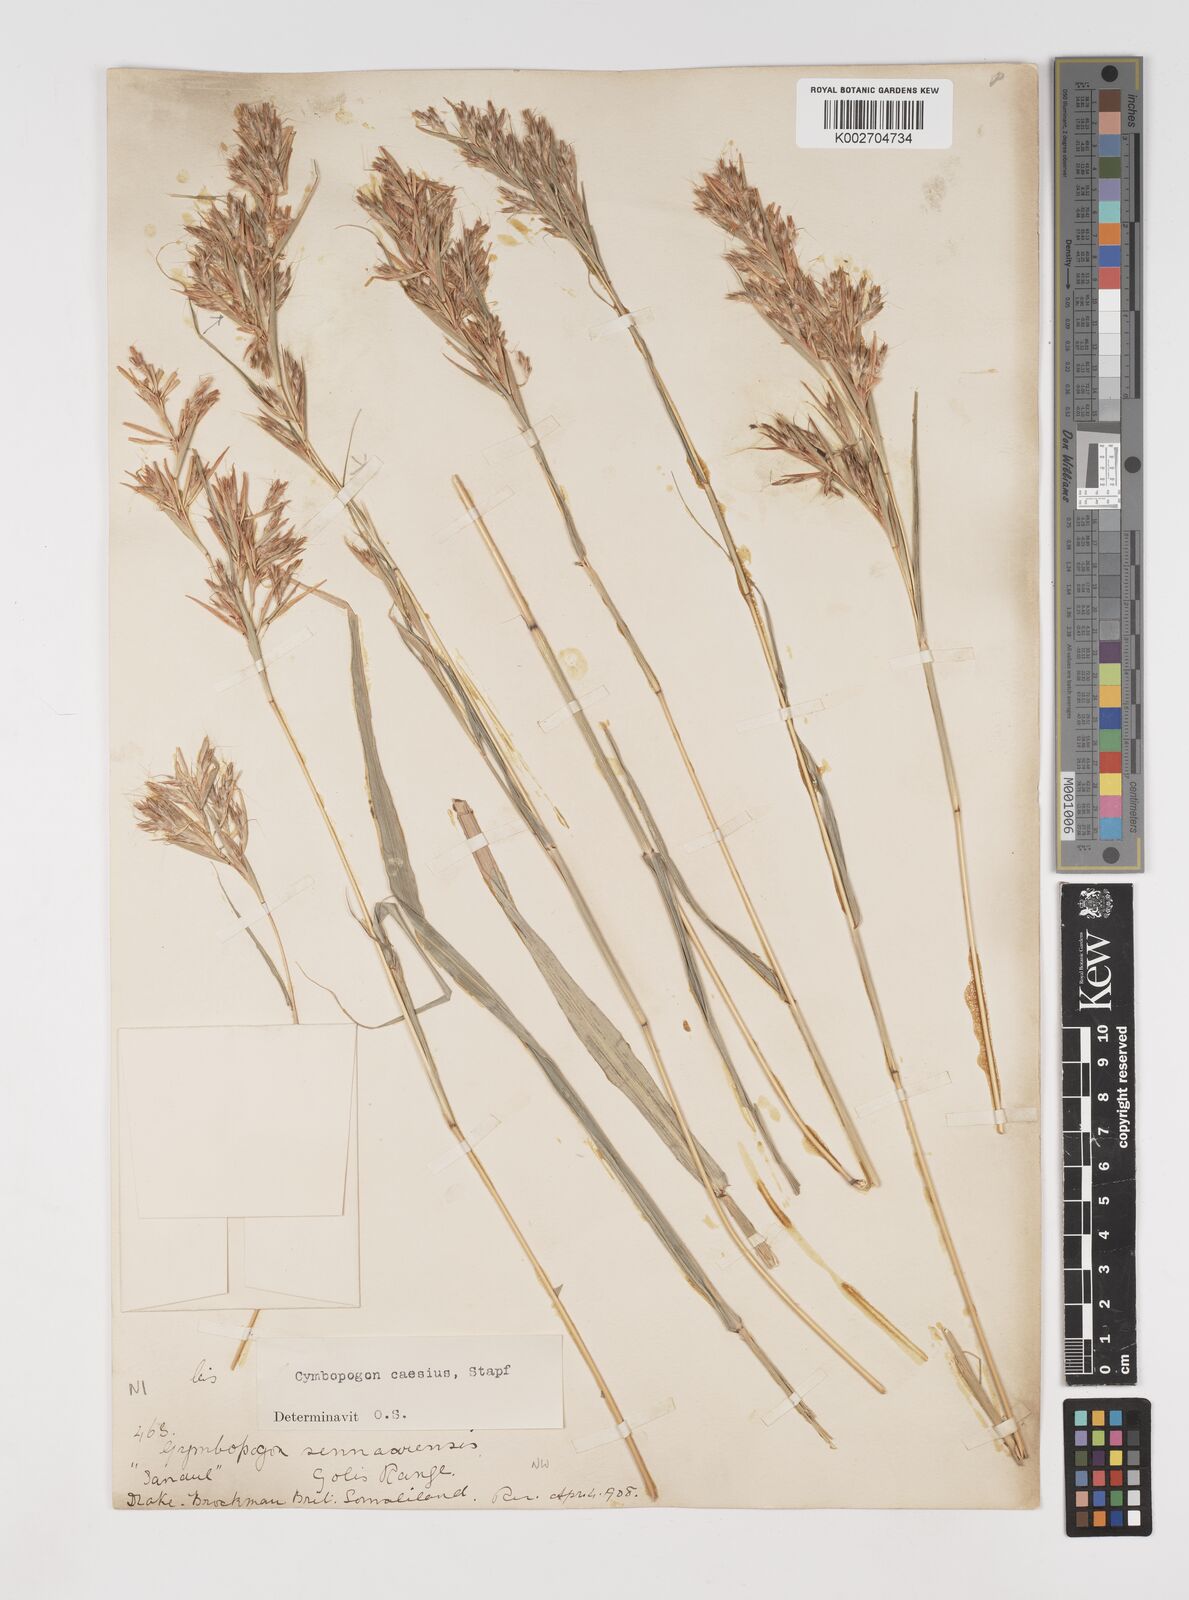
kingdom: Plantae
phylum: Tracheophyta
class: Liliopsida
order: Poales
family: Poaceae
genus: Cymbopogon
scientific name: Cymbopogon caesius
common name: Kachi grass
